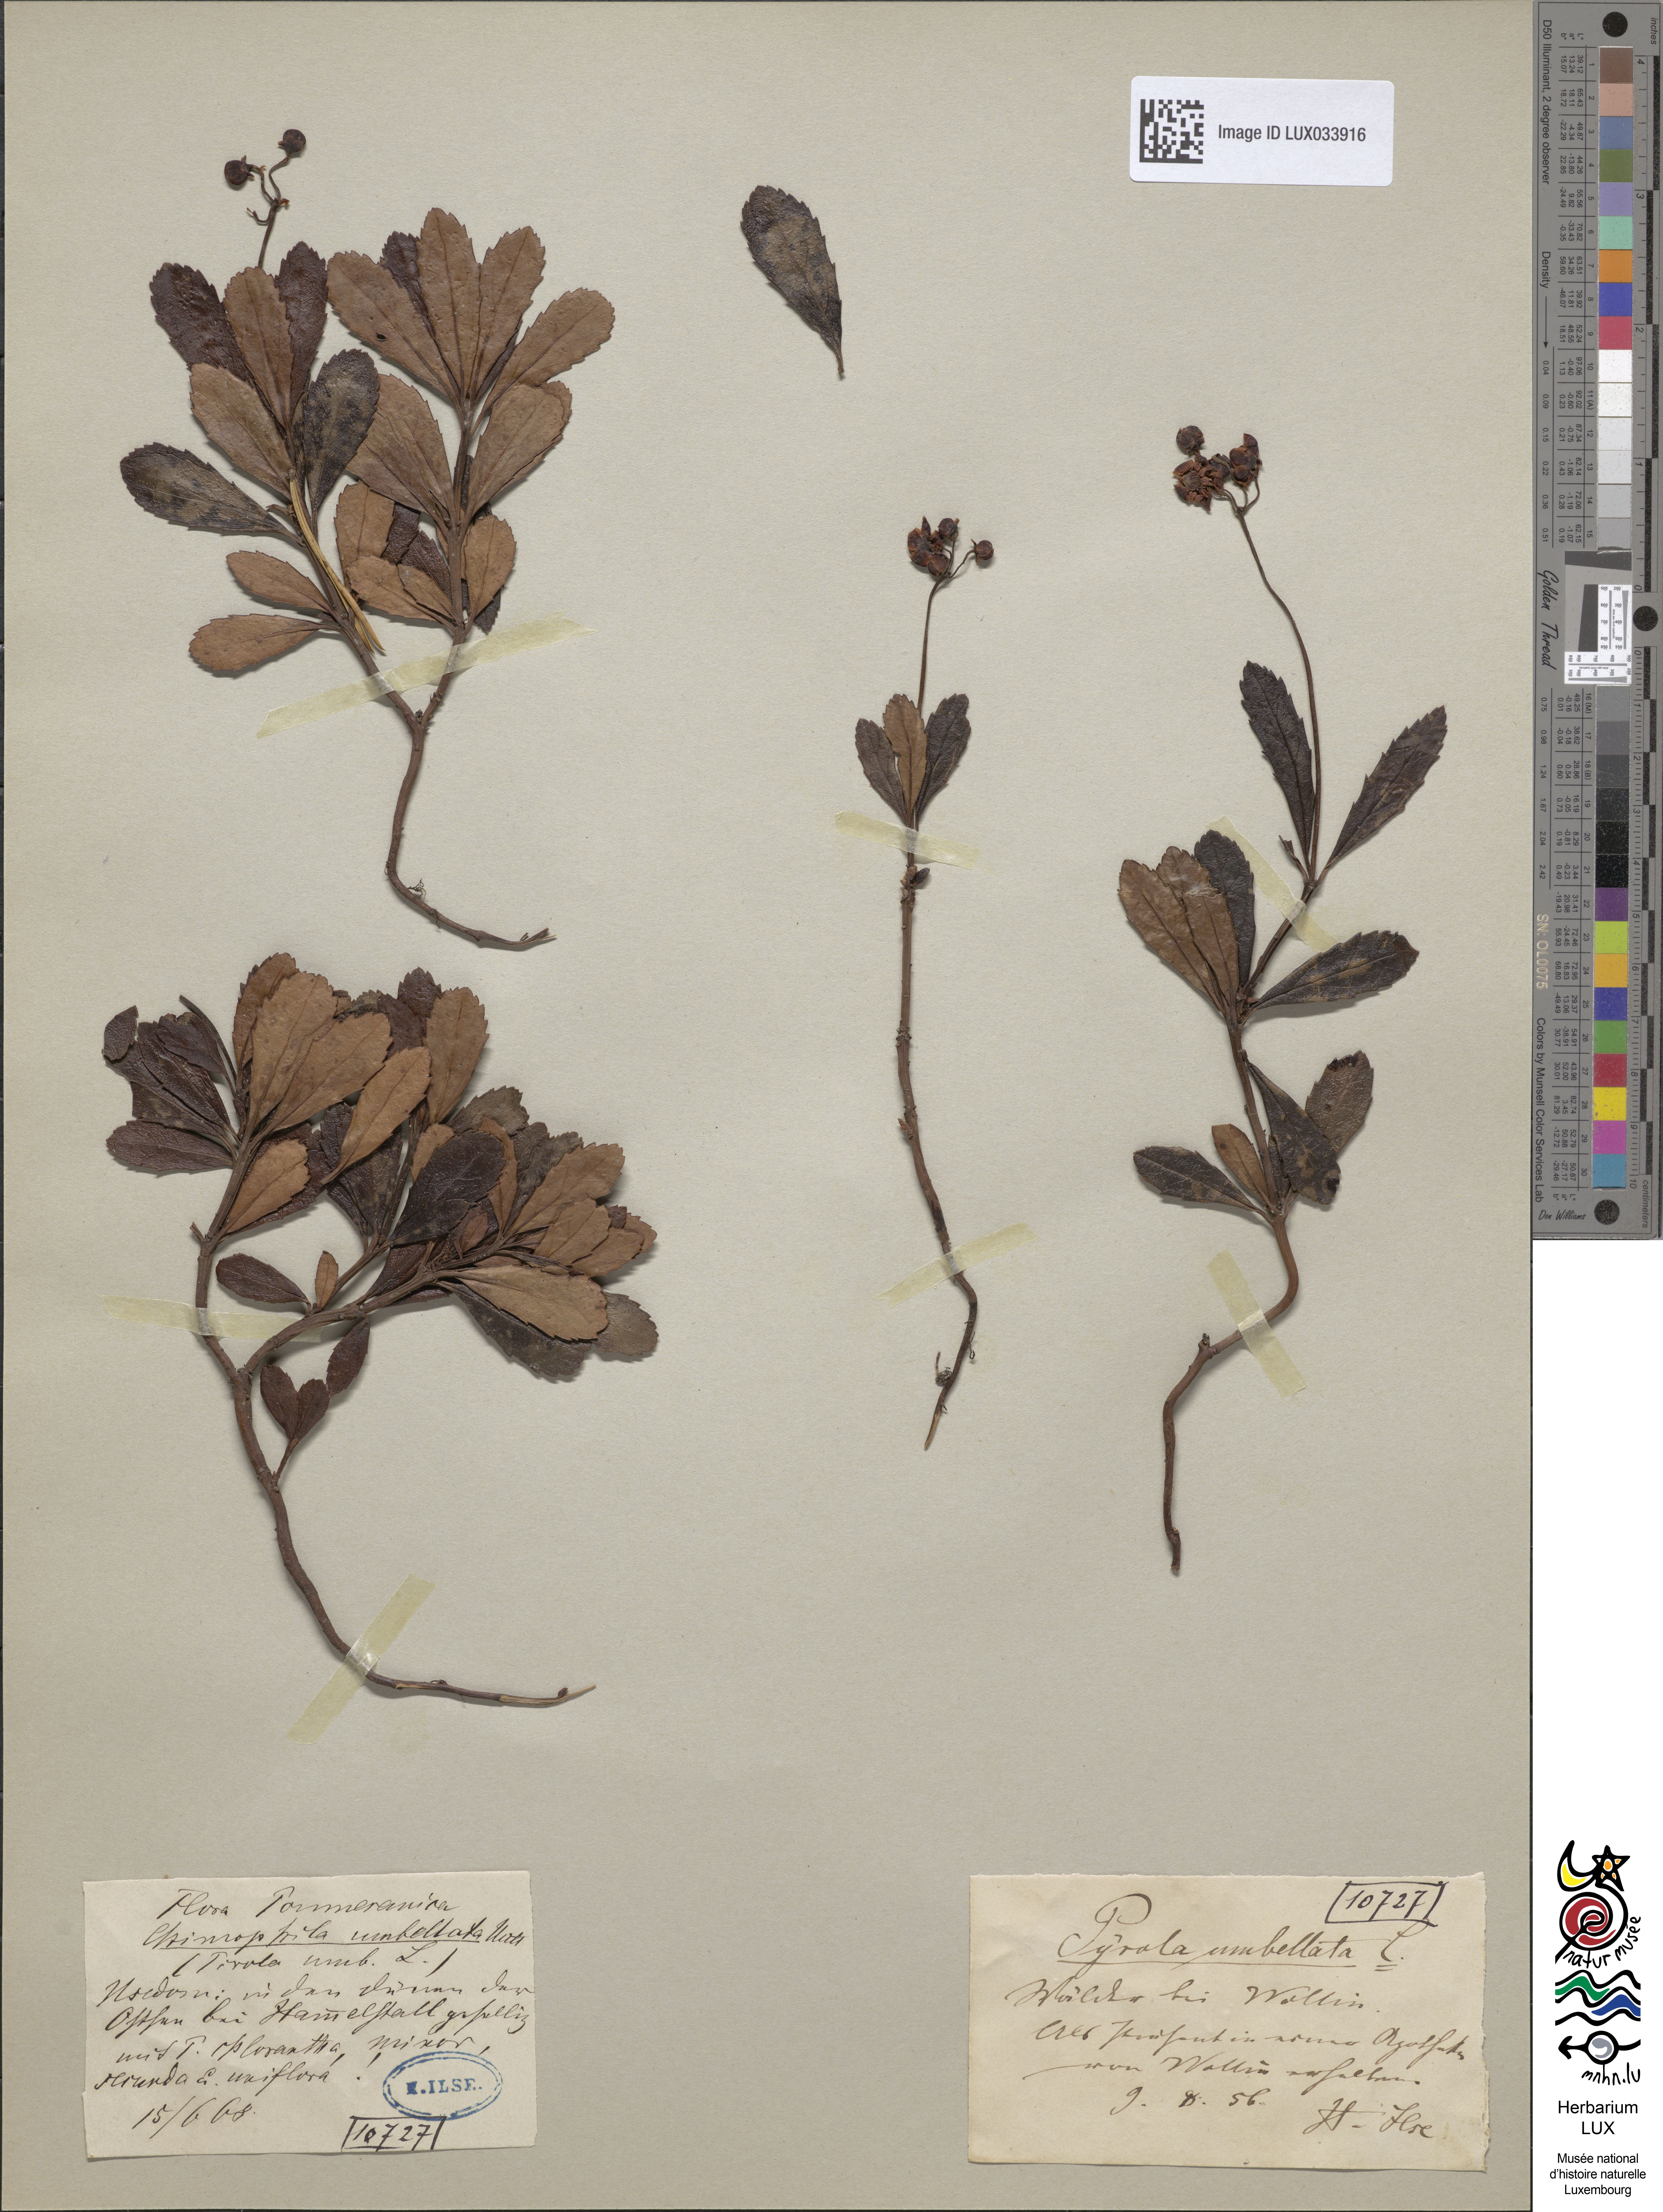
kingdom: Plantae
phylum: Tracheophyta
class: Magnoliopsida
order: Ericales
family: Ericaceae
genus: Chimaphila
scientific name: Chimaphila umbellata
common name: Pipsissewa
